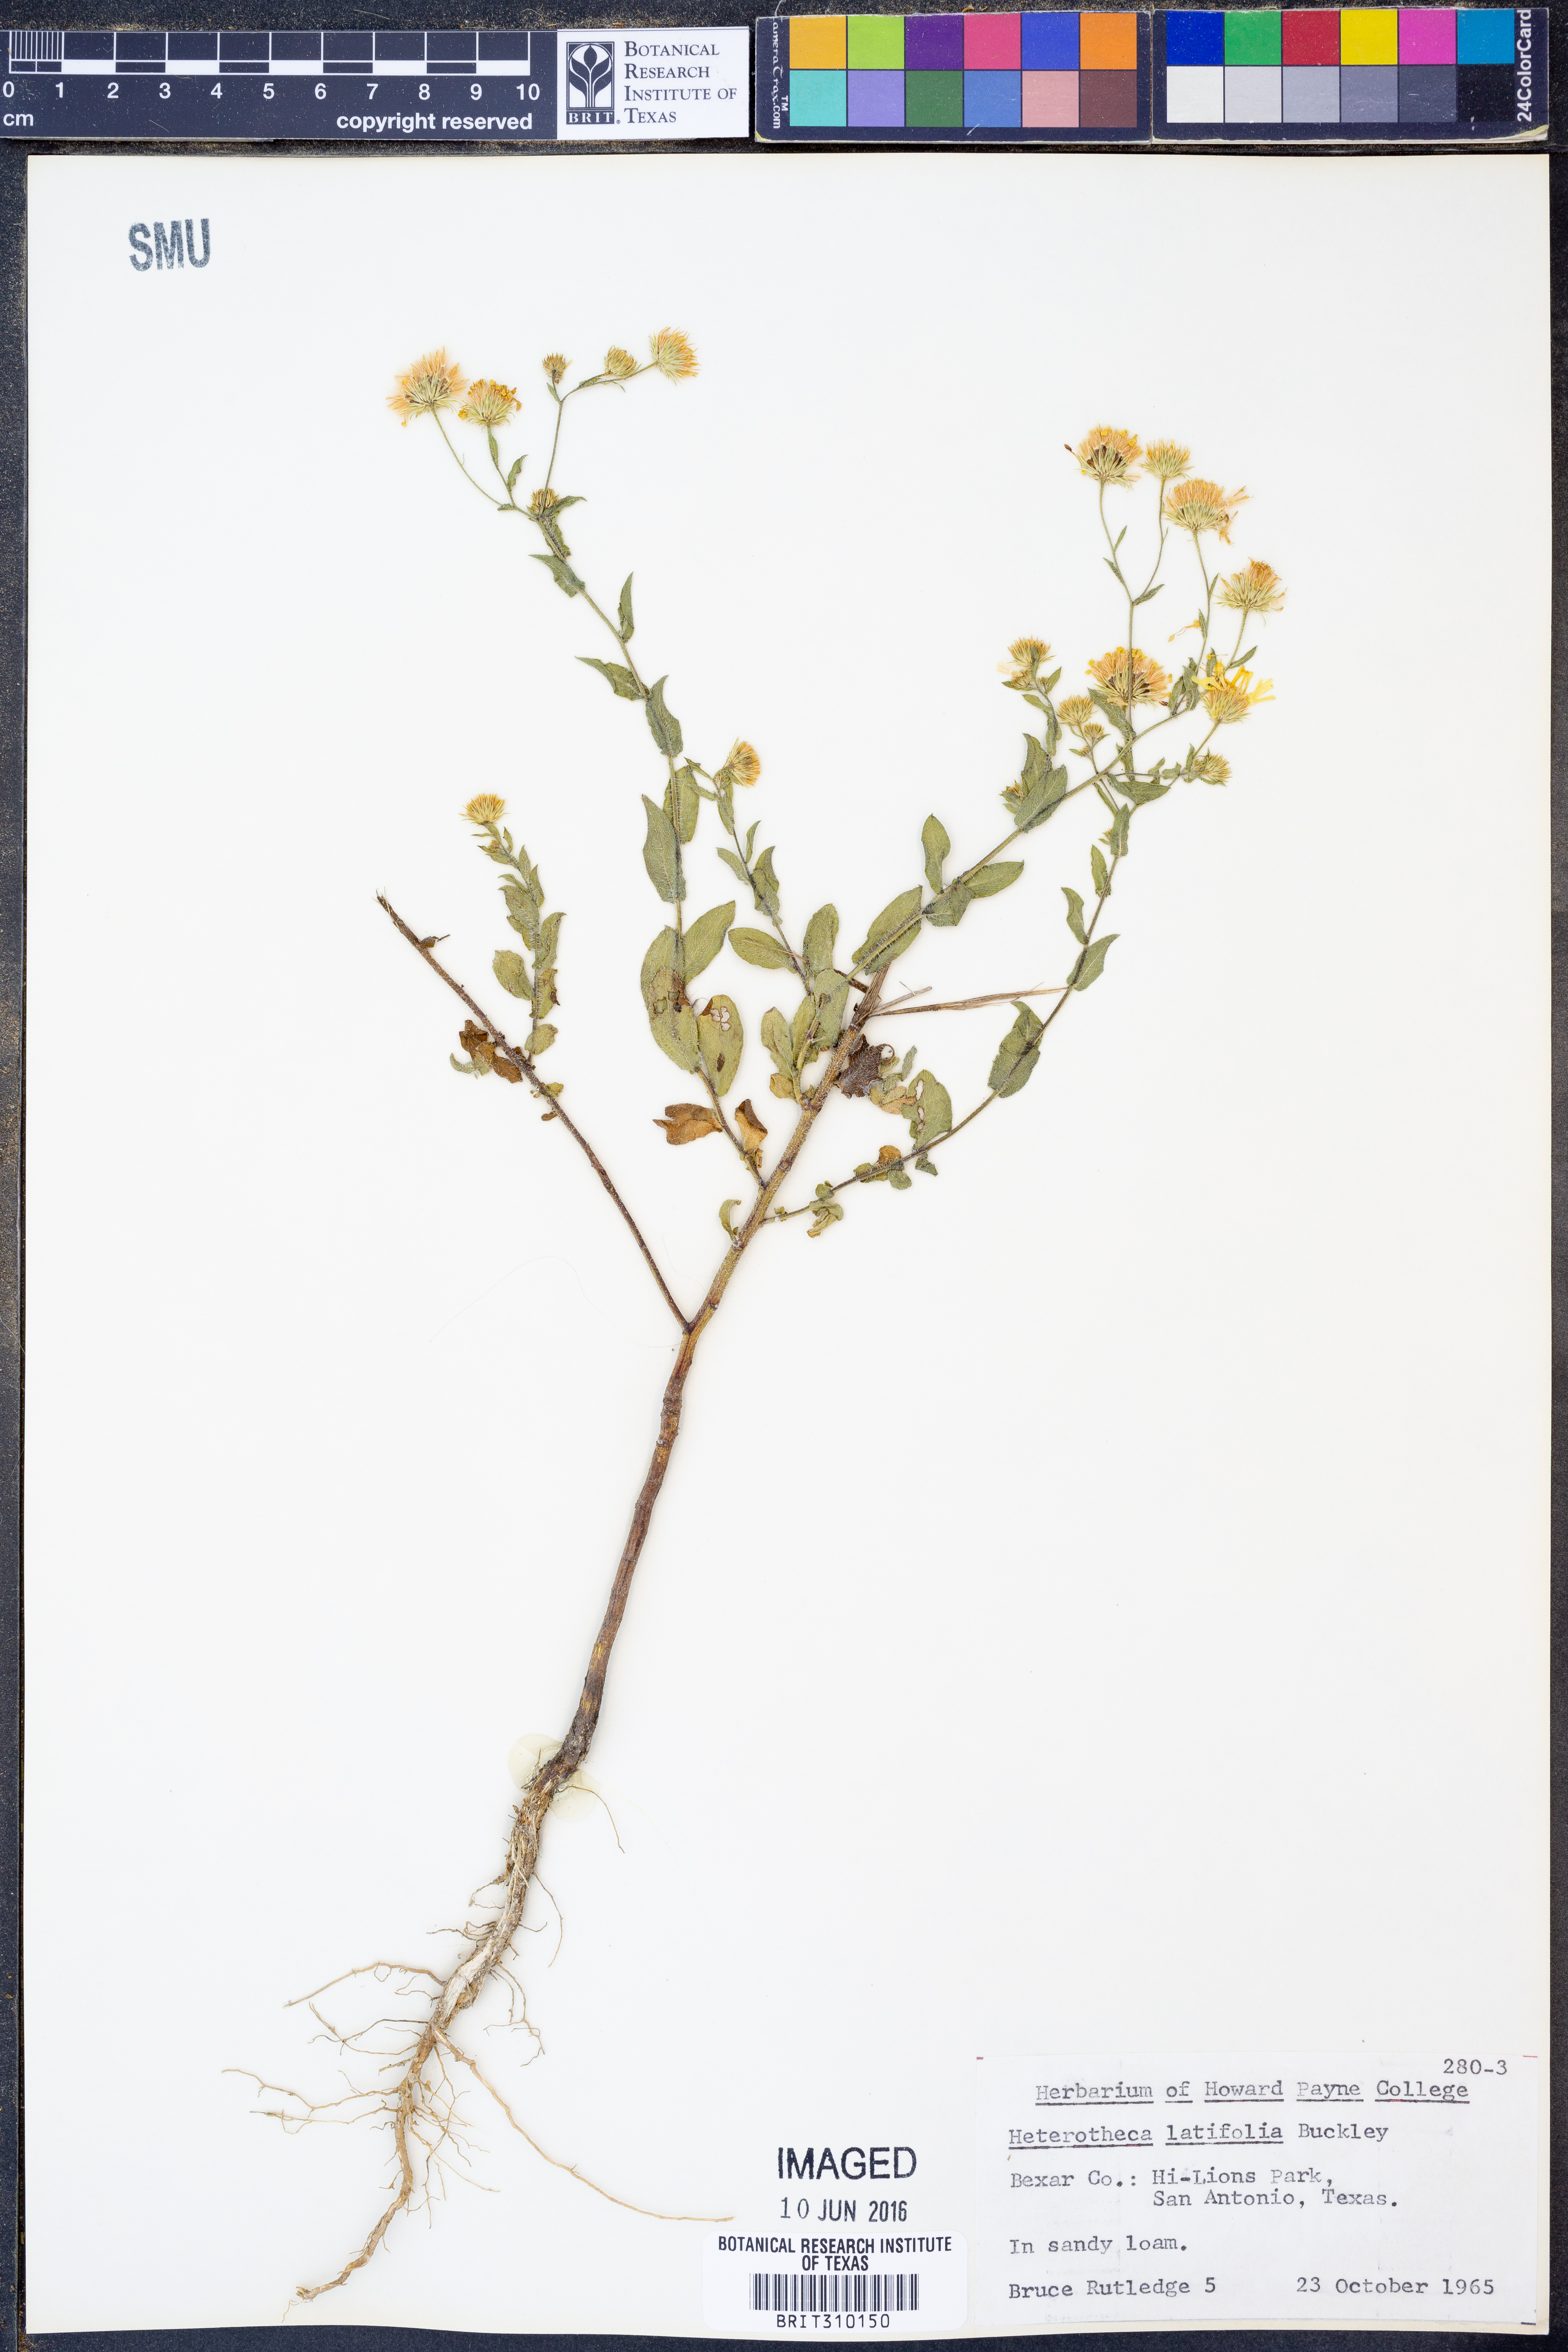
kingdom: Plantae
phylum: Tracheophyta
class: Magnoliopsida
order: Asterales
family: Asteraceae
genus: Heterotheca
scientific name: Heterotheca subaxillaris
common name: Camphorweed
